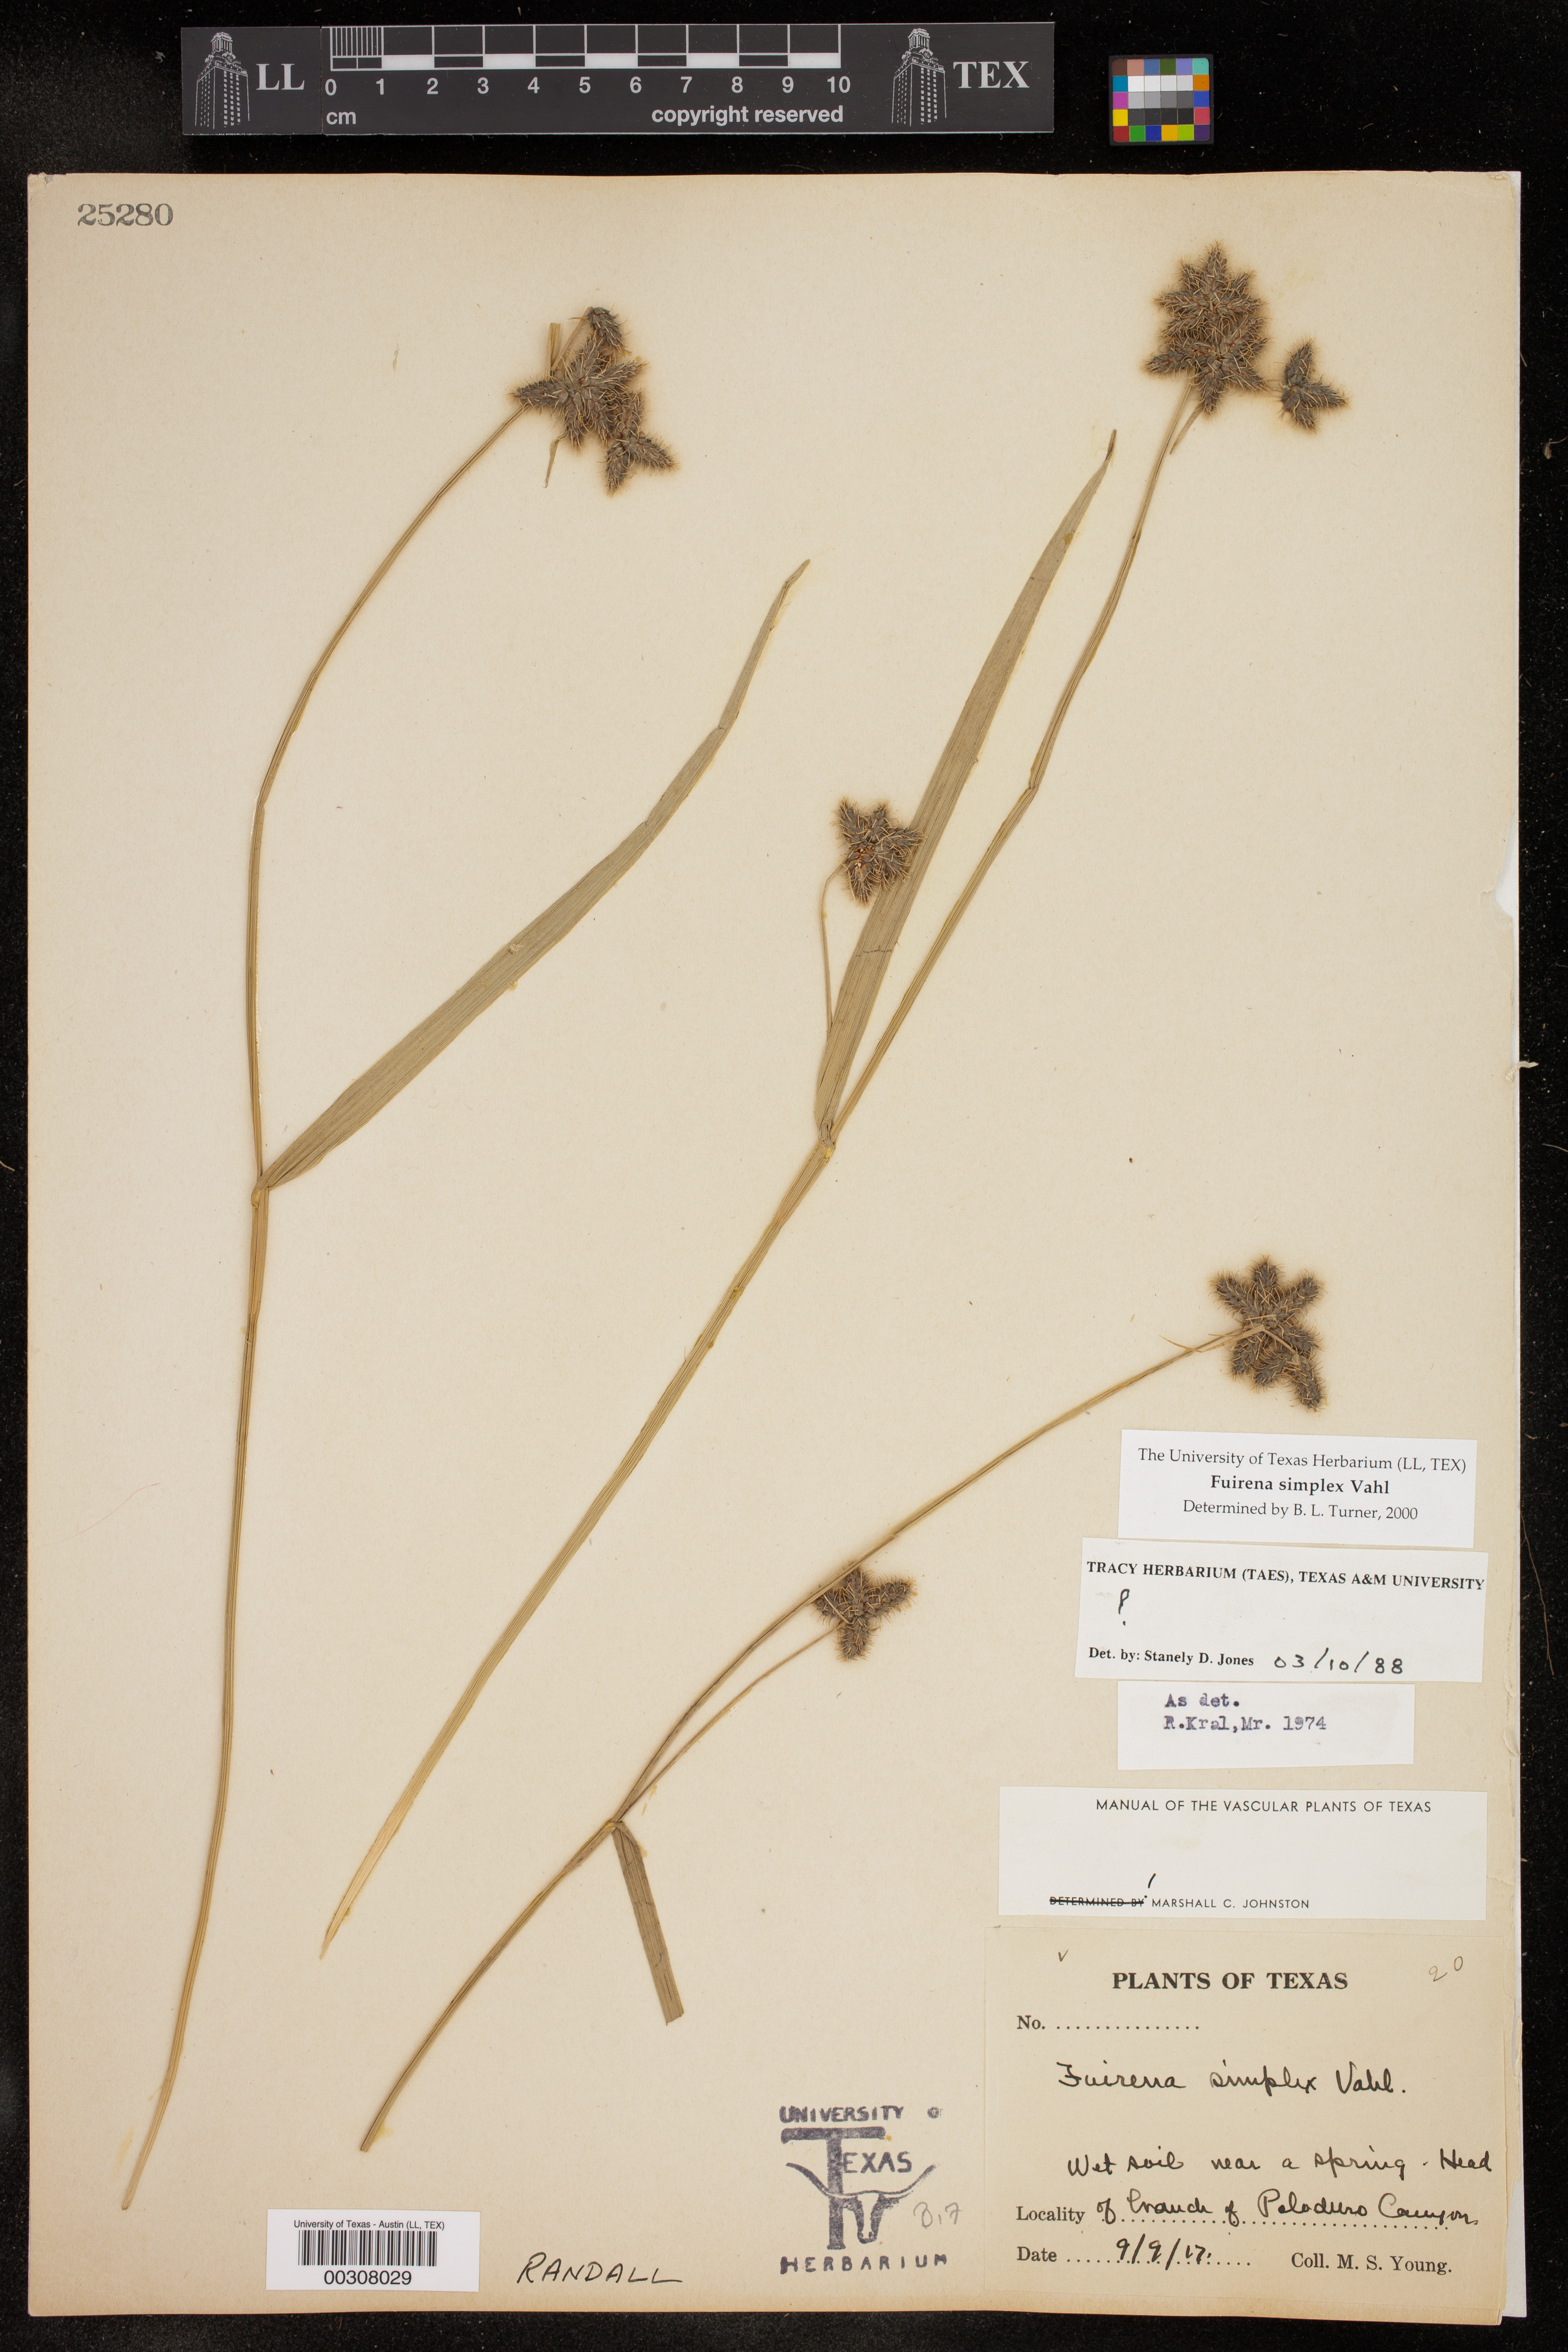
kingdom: Plantae
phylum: Tracheophyta
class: Liliopsida
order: Poales
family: Cyperaceae
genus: Fuirena
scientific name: Fuirena simplex
